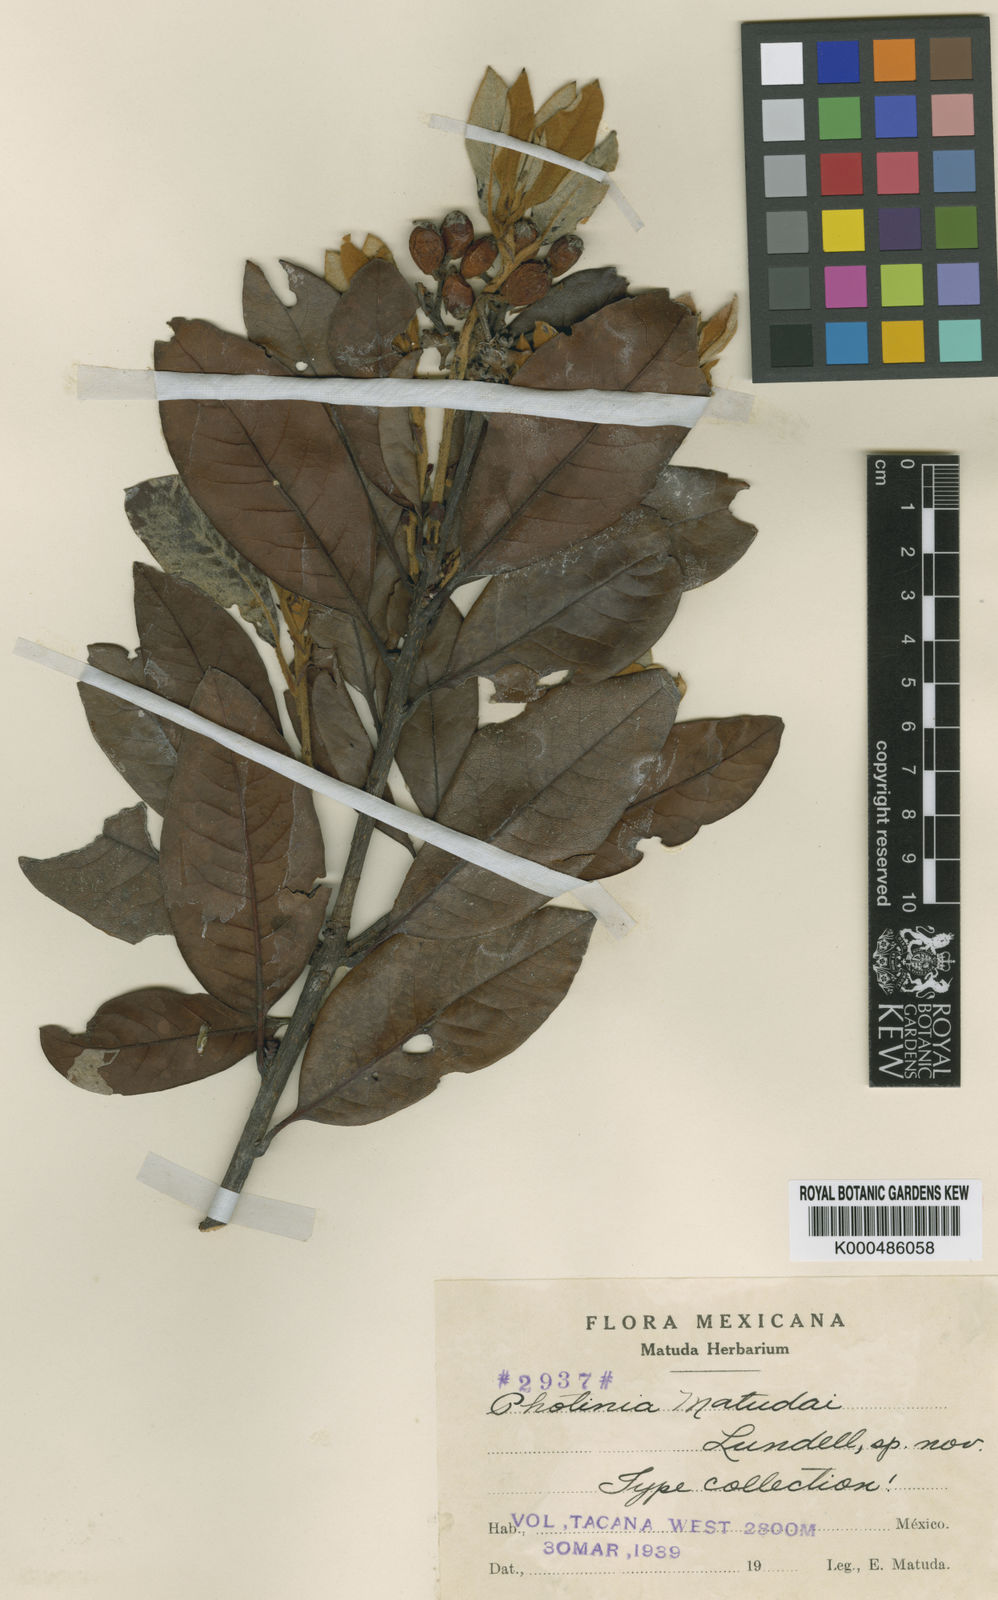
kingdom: Plantae
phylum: Tracheophyta
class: Magnoliopsida
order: Rosales
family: Rosaceae
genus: Photinia
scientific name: Photinia
